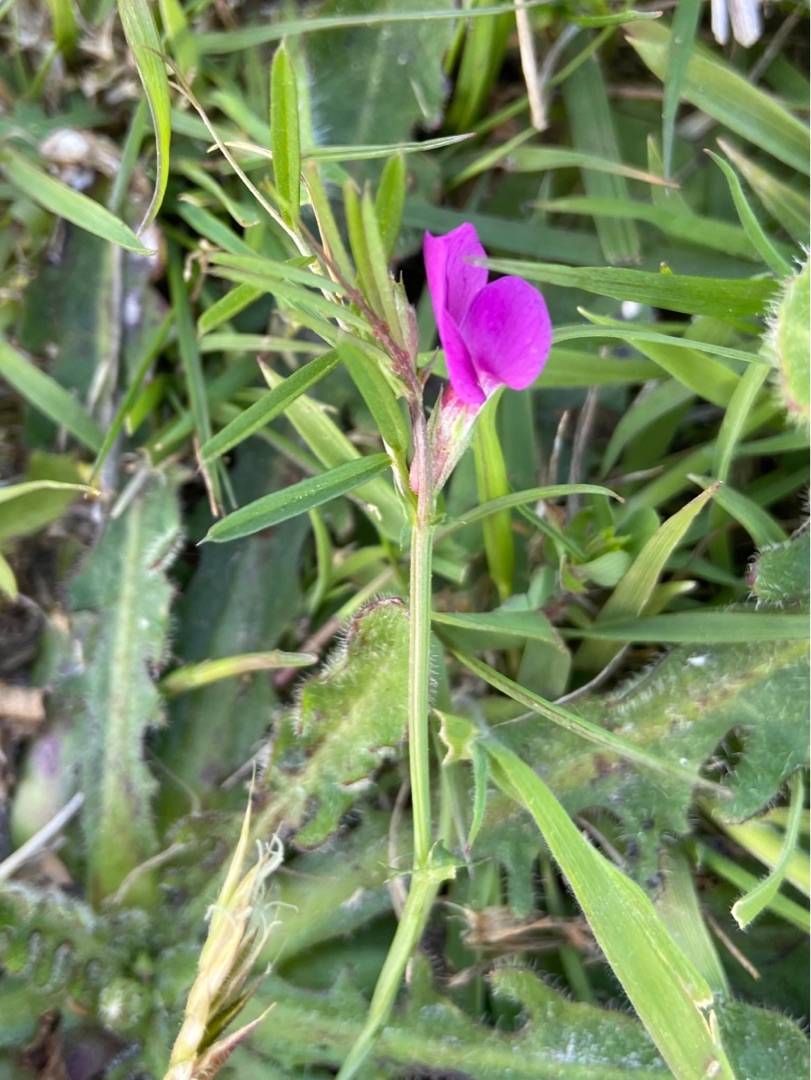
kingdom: Plantae
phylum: Tracheophyta
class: Magnoliopsida
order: Fabales
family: Fabaceae
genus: Vicia
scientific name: Vicia sativa
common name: Smalbladet vikke
